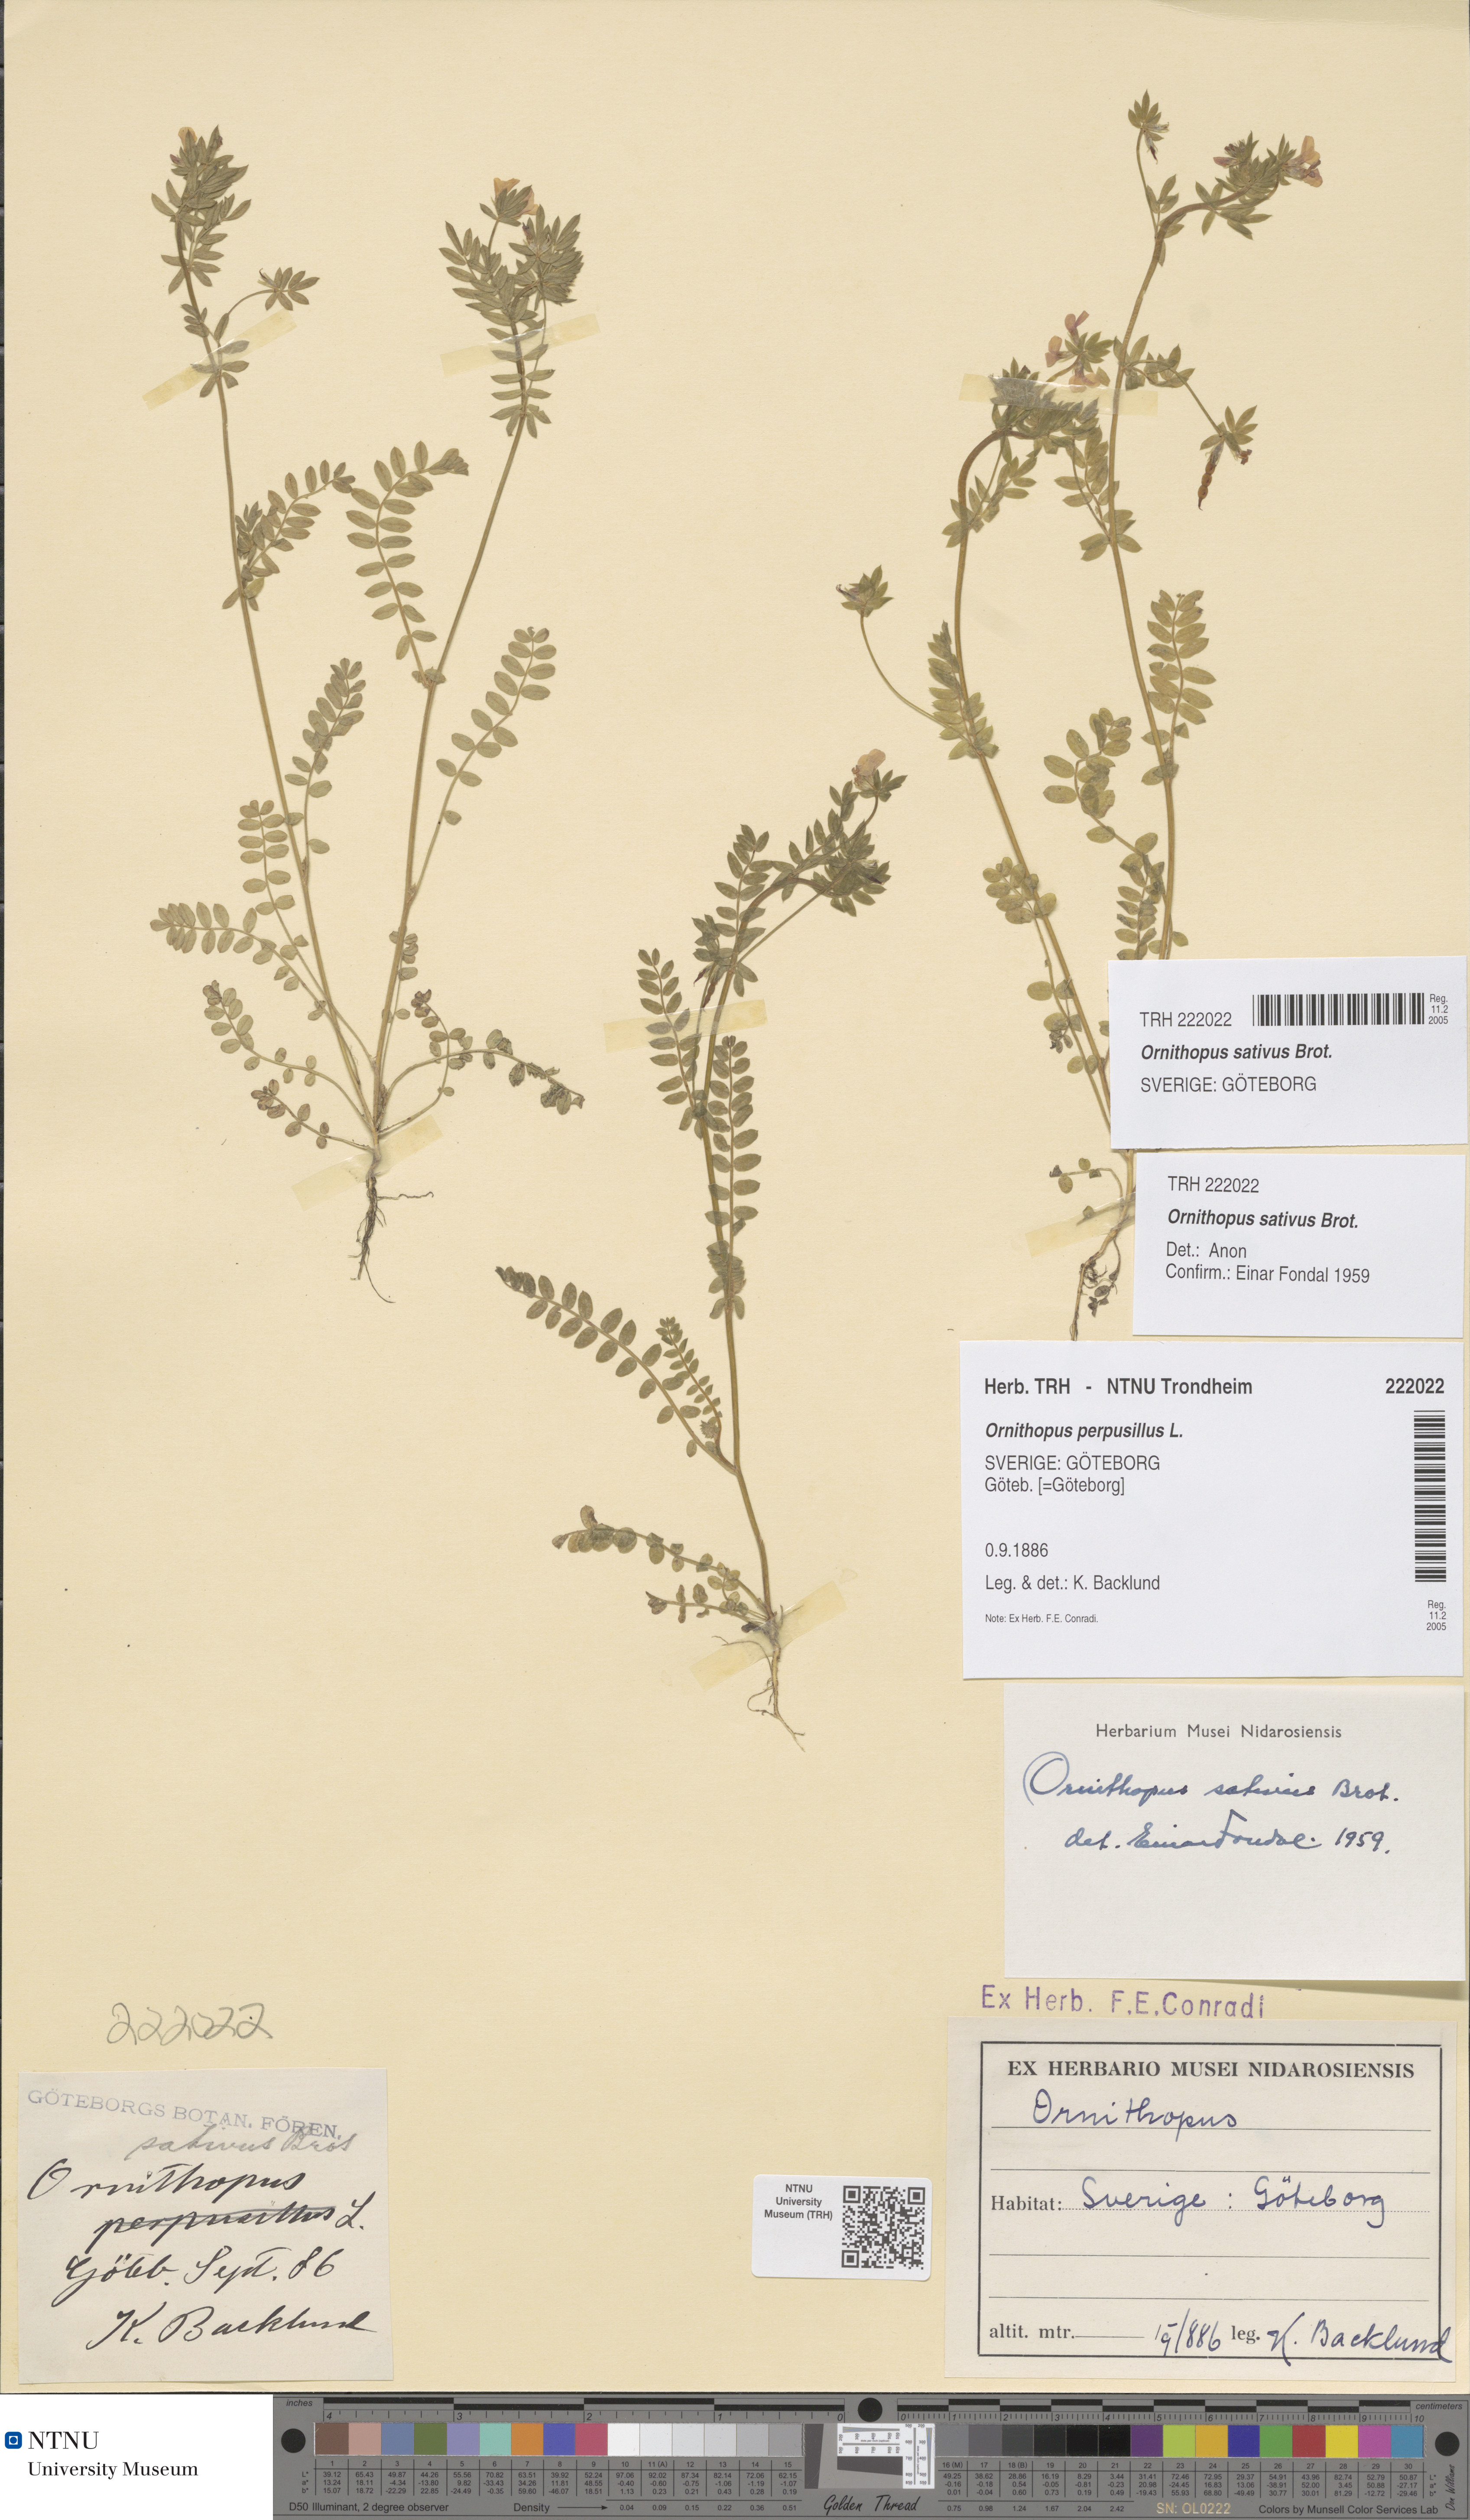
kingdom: Plantae
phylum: Tracheophyta
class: Magnoliopsida
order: Fabales
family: Fabaceae
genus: Ornithopus
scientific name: Ornithopus sativus
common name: Serradella
